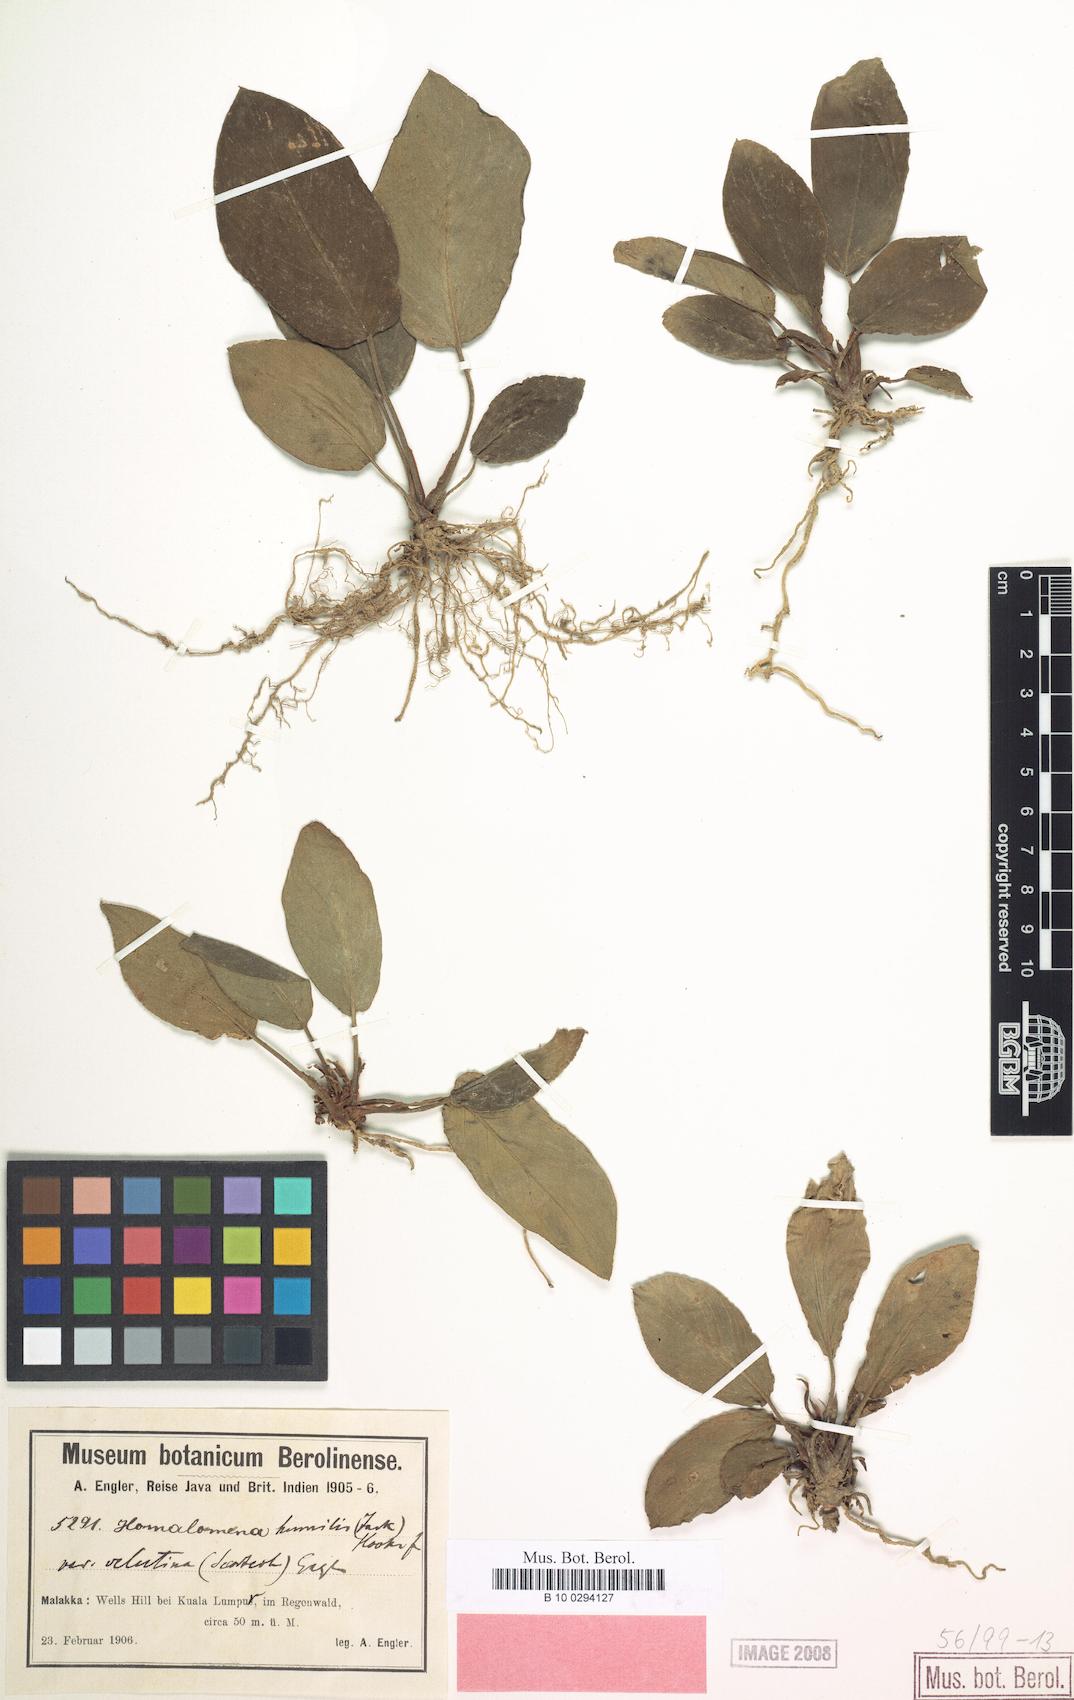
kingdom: Plantae
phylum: Tracheophyta
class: Liliopsida
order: Alismatales
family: Araceae
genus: Homalomena
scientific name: Homalomena humilis
